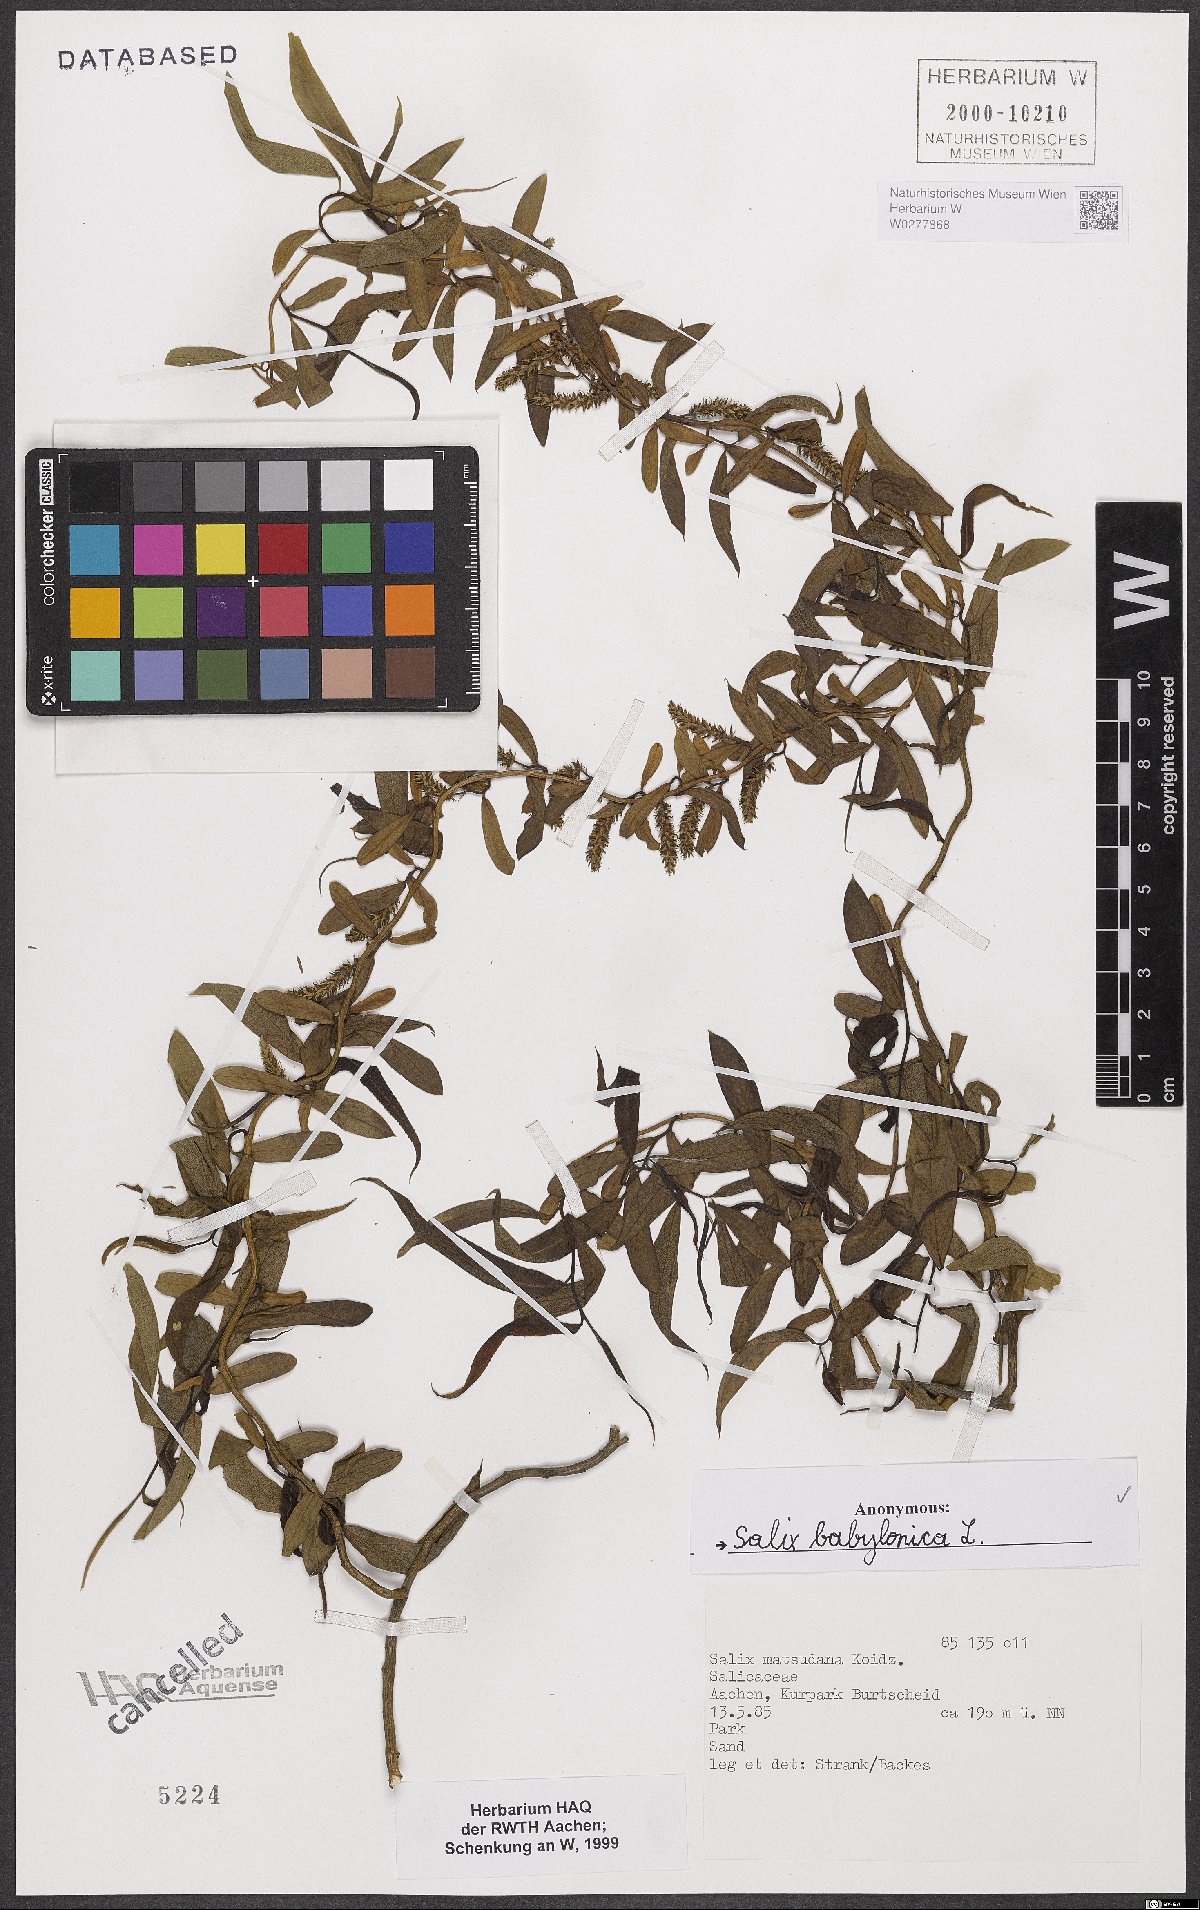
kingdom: Plantae
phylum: Tracheophyta
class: Magnoliopsida
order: Malpighiales
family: Salicaceae
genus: Salix
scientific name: Salix babylonica
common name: Weeping willow
